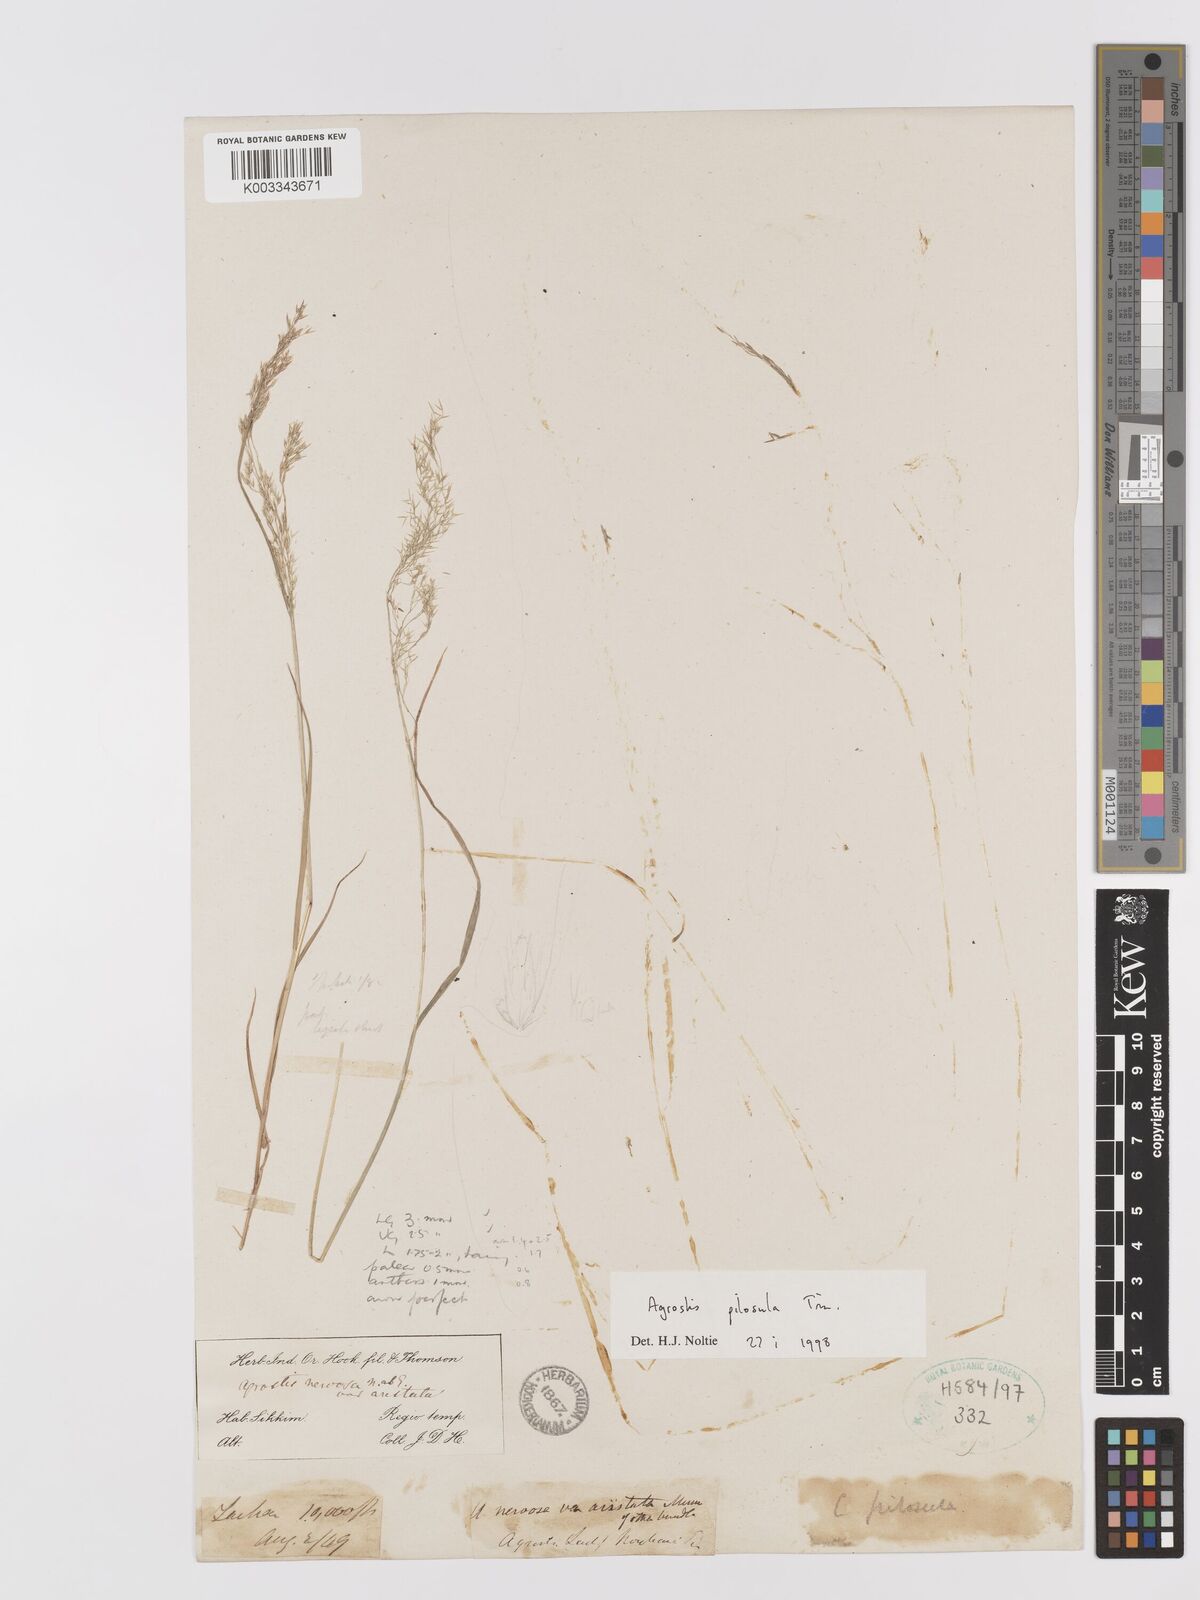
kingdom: Plantae
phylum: Tracheophyta
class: Liliopsida
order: Poales
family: Poaceae
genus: Agrostis
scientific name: Agrostis pilosula
